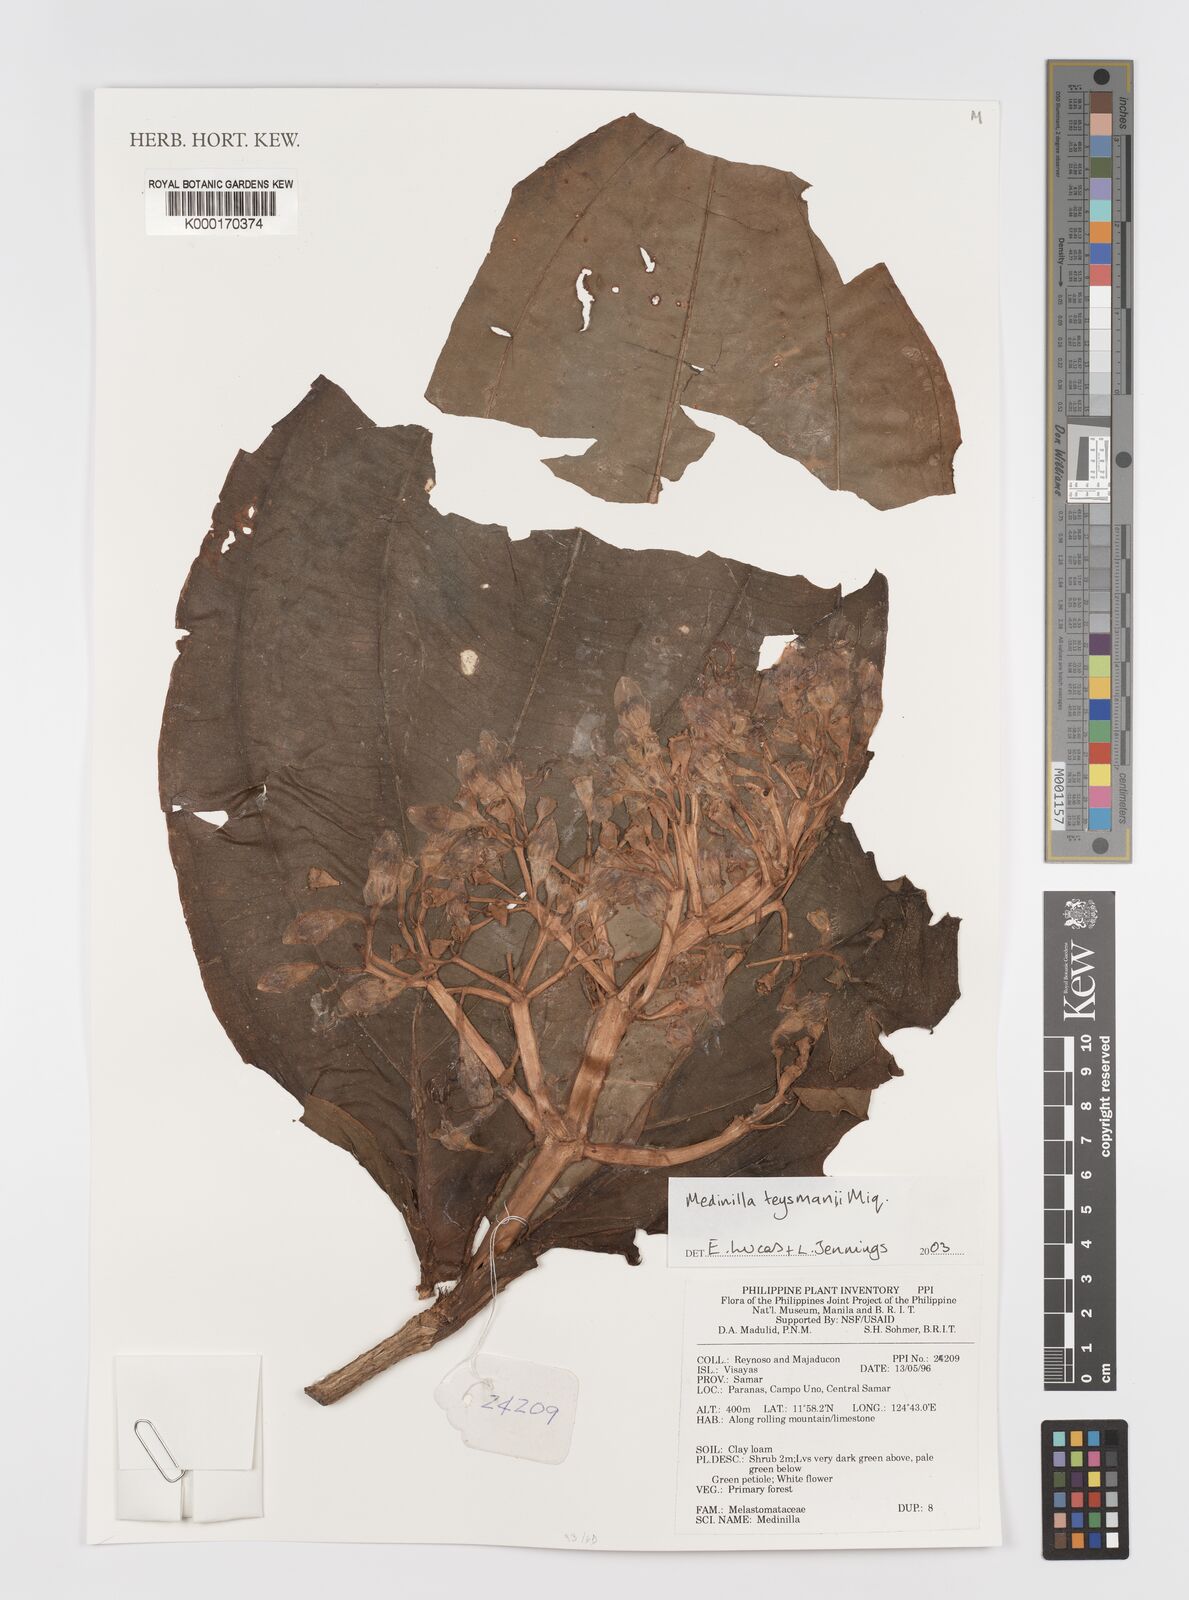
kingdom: Plantae
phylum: Tracheophyta
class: Magnoliopsida
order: Myrtales
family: Melastomataceae
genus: Medinilla
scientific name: Medinilla teysmannii
